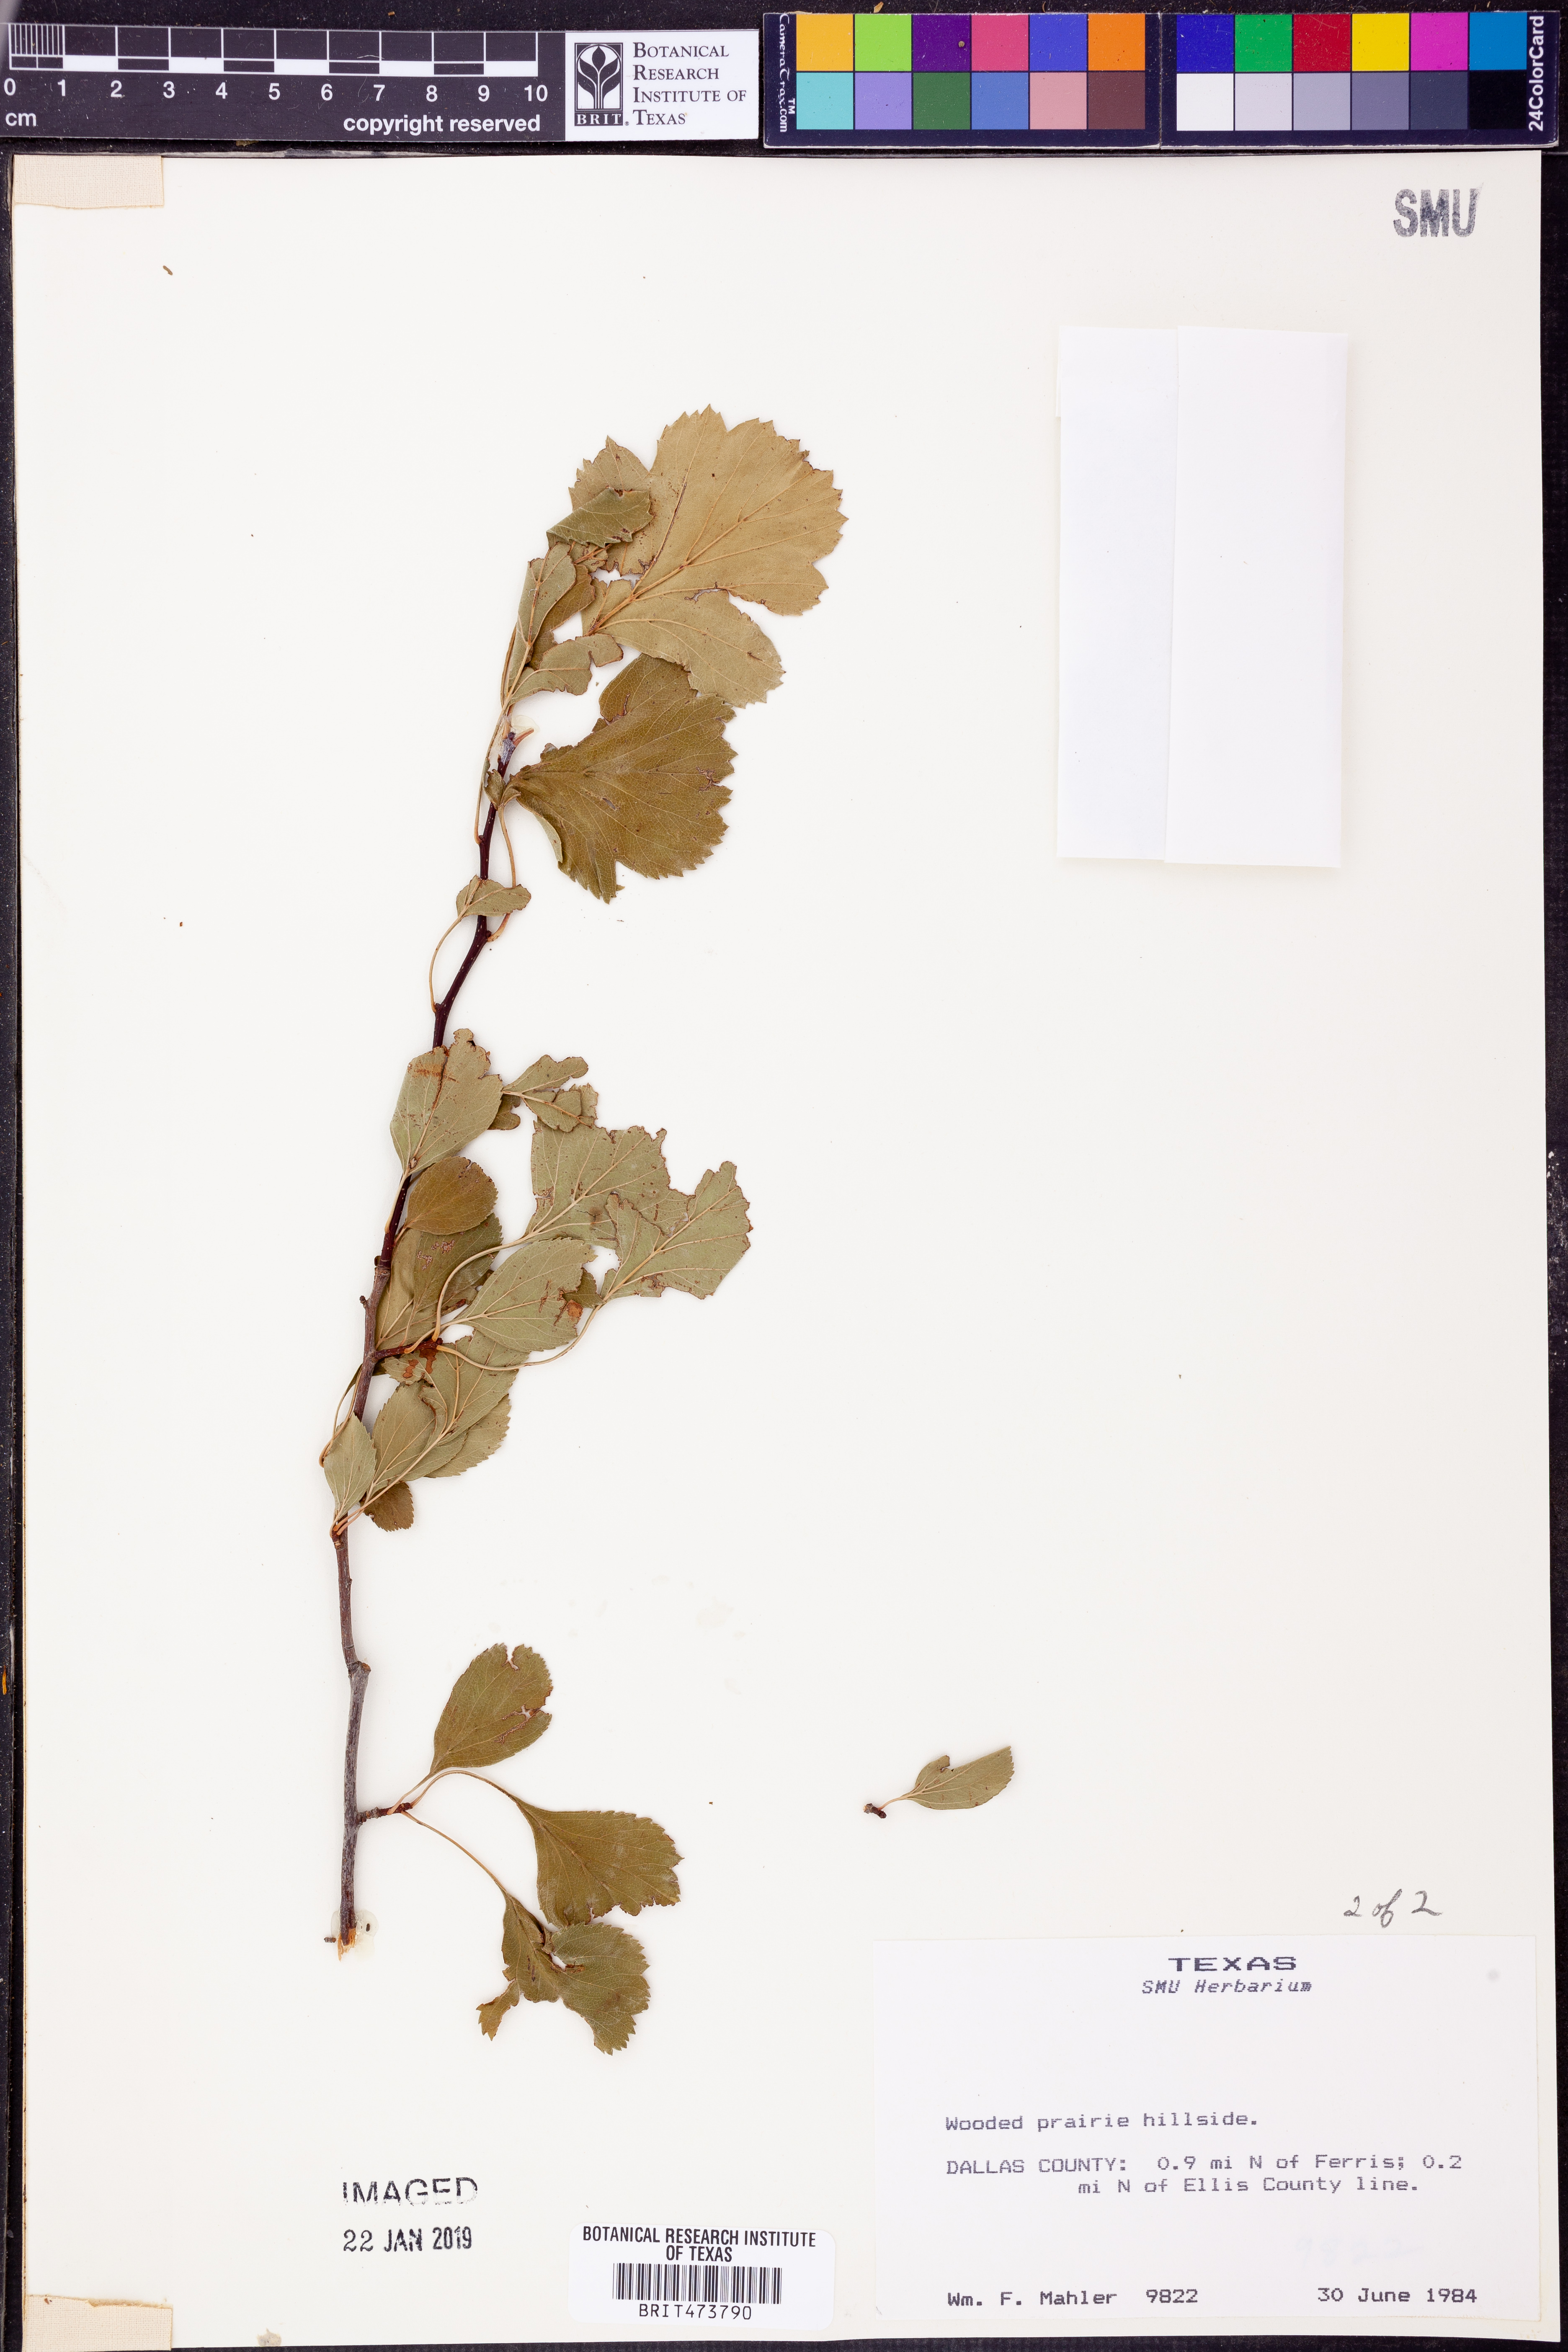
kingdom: Plantae
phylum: Tracheophyta
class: Magnoliopsida
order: Rosales
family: Rosaceae
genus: Crataegus
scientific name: Crataegus viridis
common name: Southernthorn
